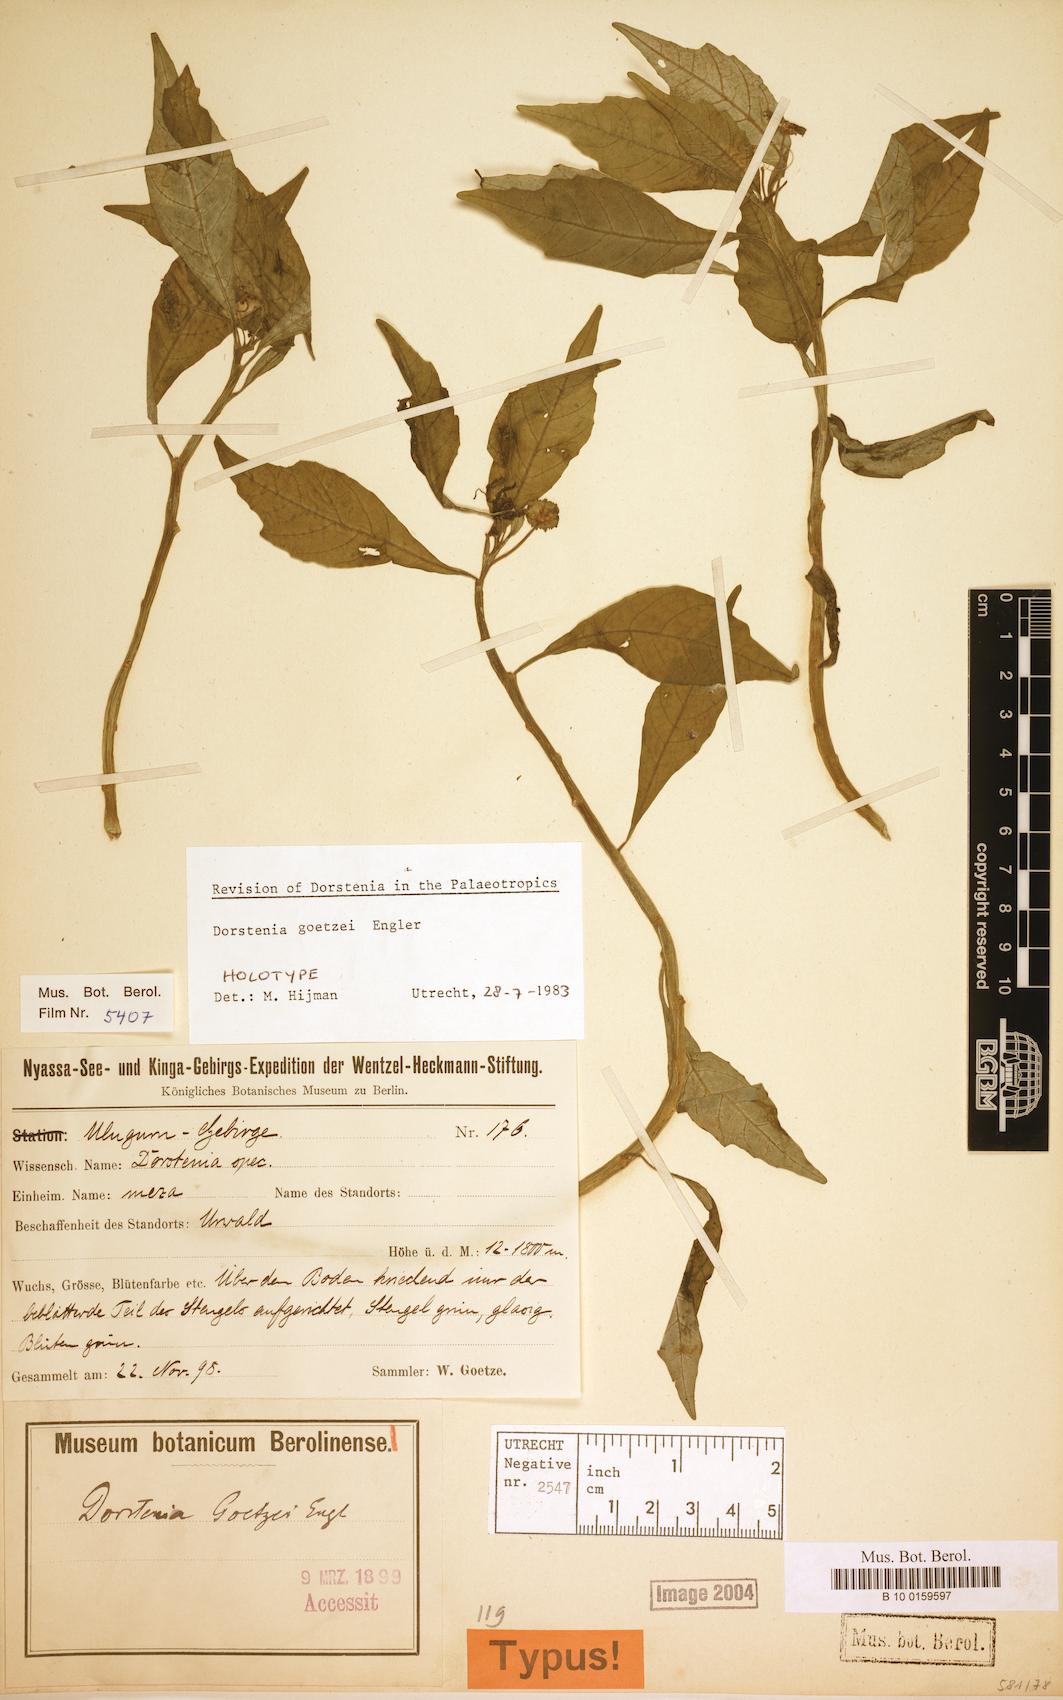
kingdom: Plantae
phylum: Tracheophyta
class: Magnoliopsida
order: Rosales
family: Moraceae
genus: Dorstenia
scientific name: Dorstenia goetzei
